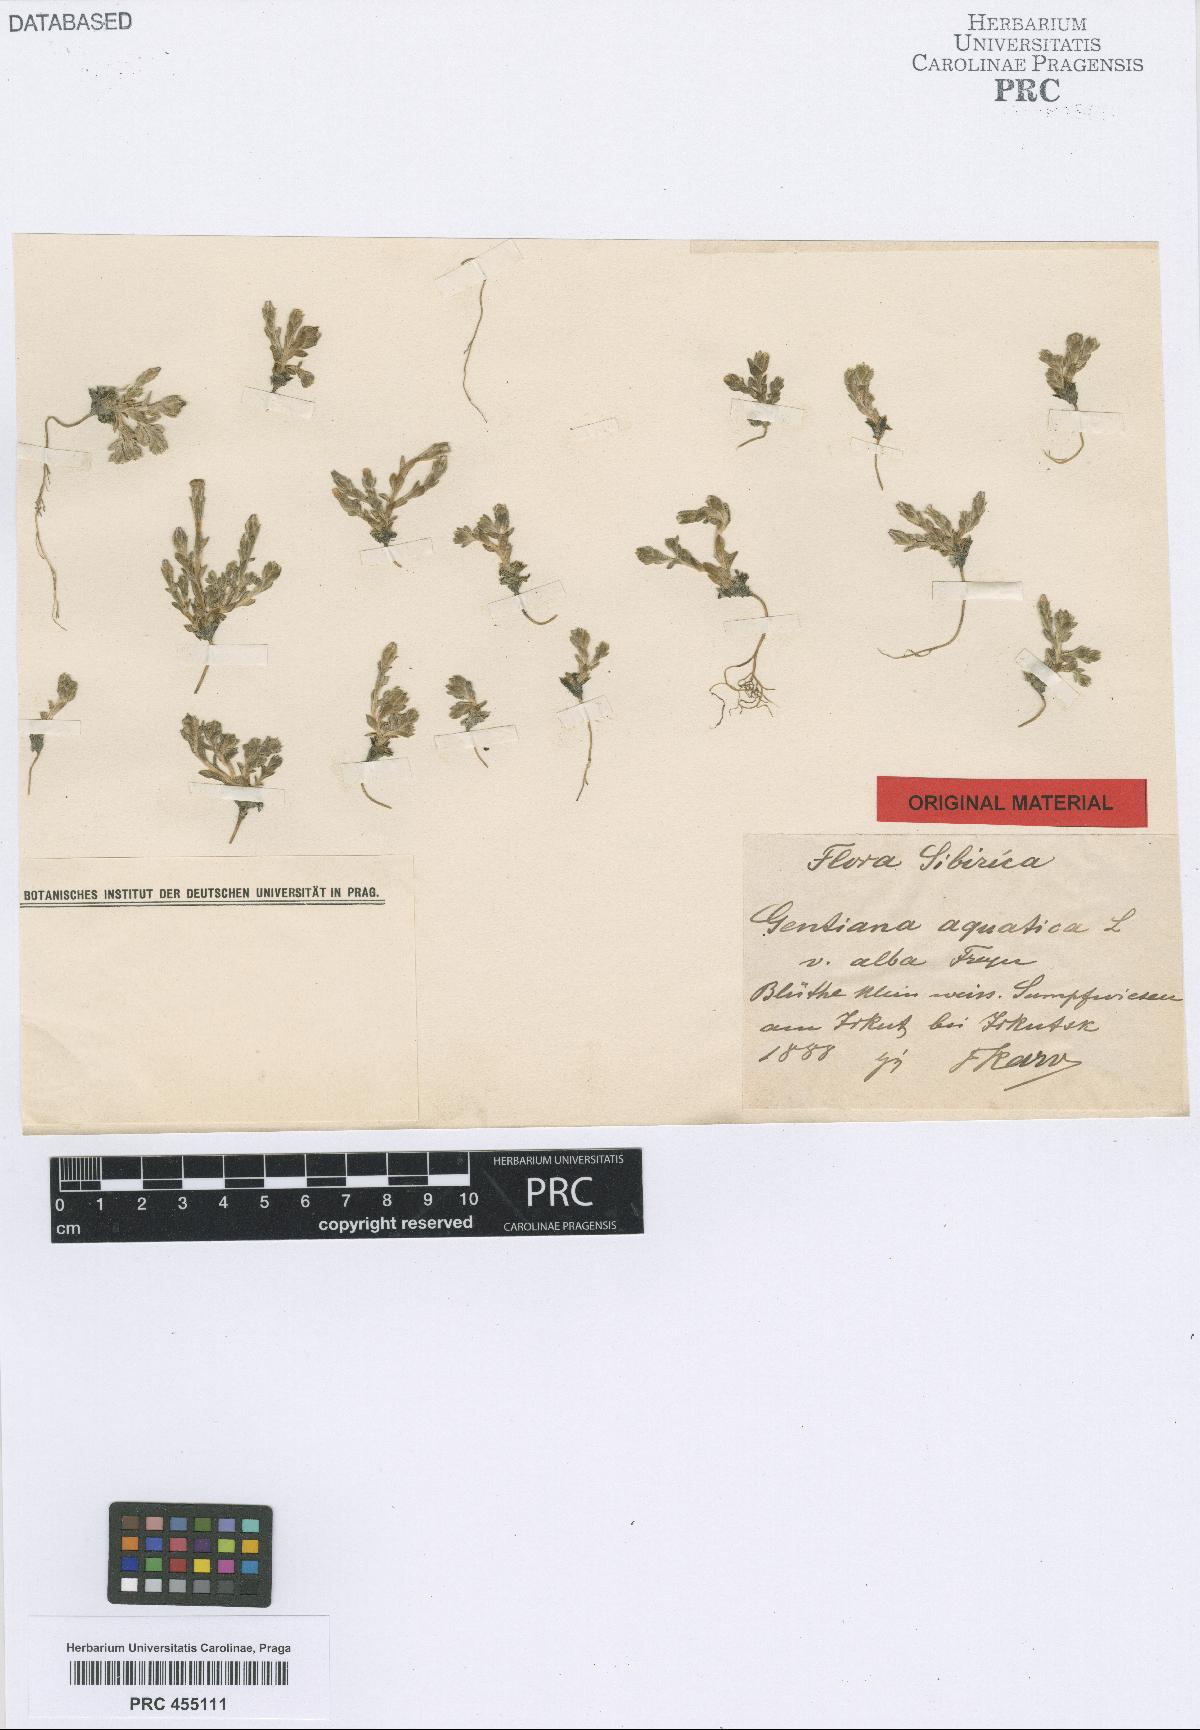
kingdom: Plantae
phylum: Tracheophyta
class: Magnoliopsida
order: Gentianales
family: Gentianaceae
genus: Gentiana
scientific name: Gentiana leucomelaena
